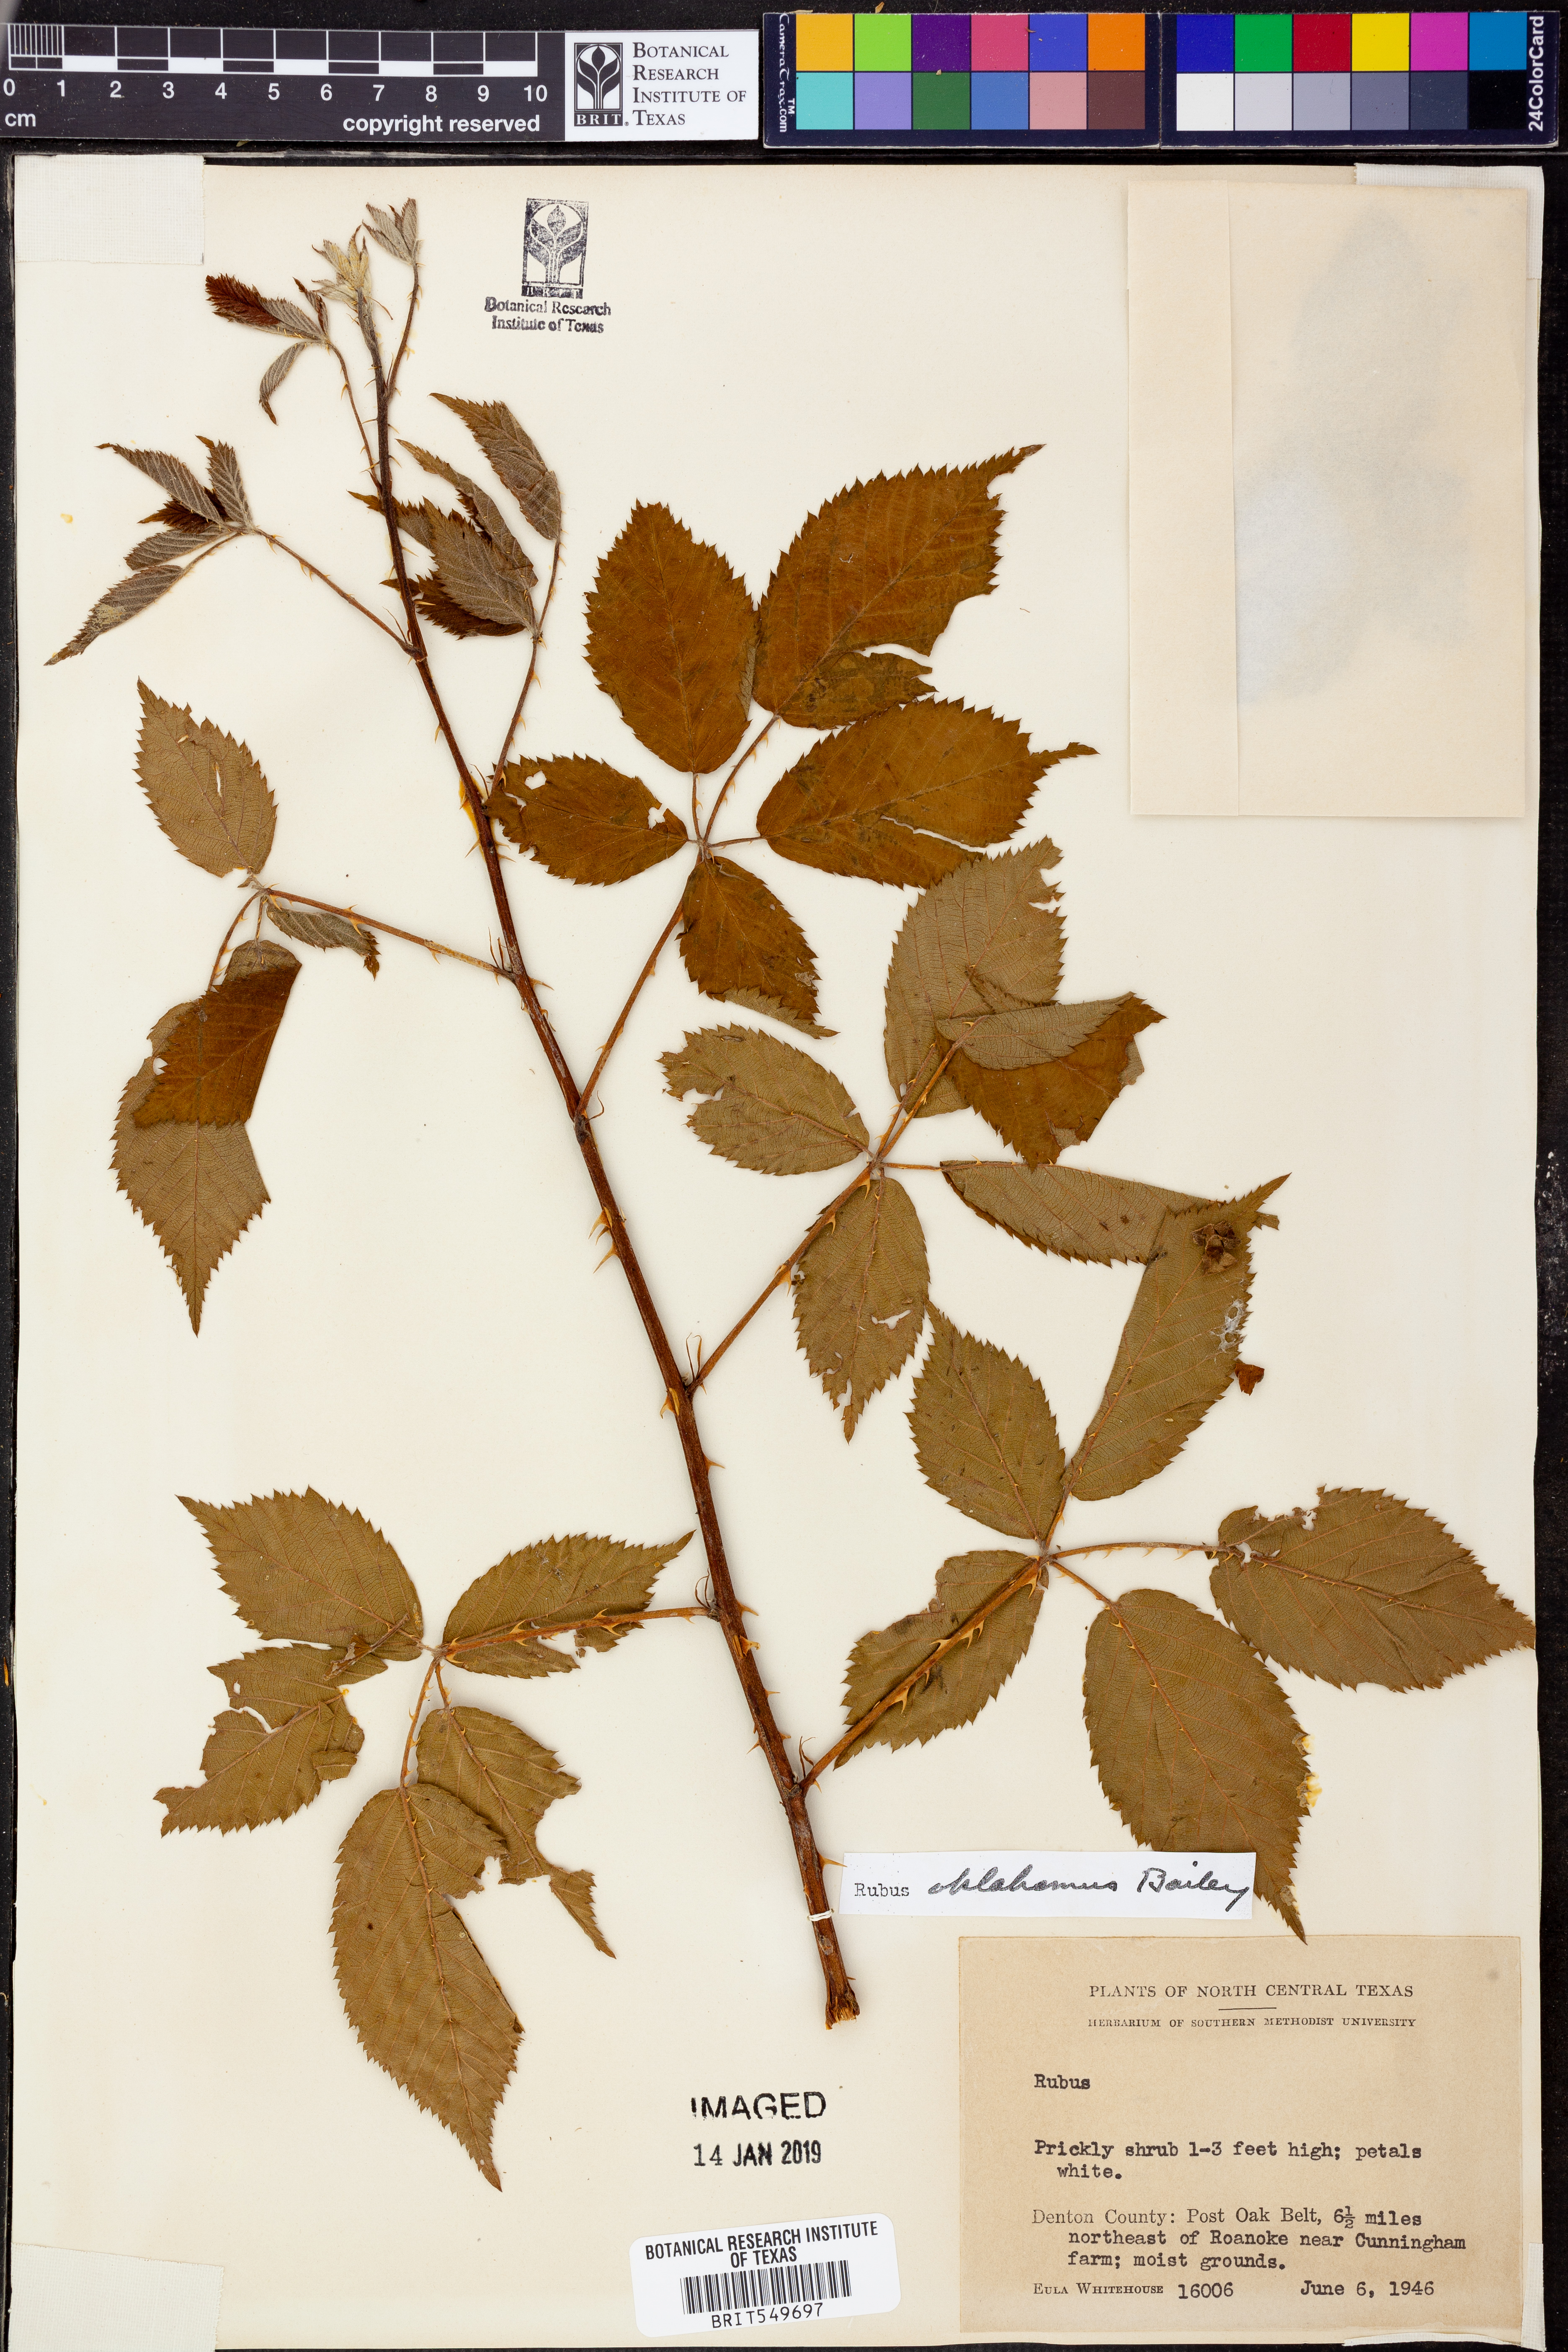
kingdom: Plantae
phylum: Tracheophyta
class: Magnoliopsida
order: Rosales
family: Rosaceae
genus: Rubus
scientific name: Rubus oklahomus
